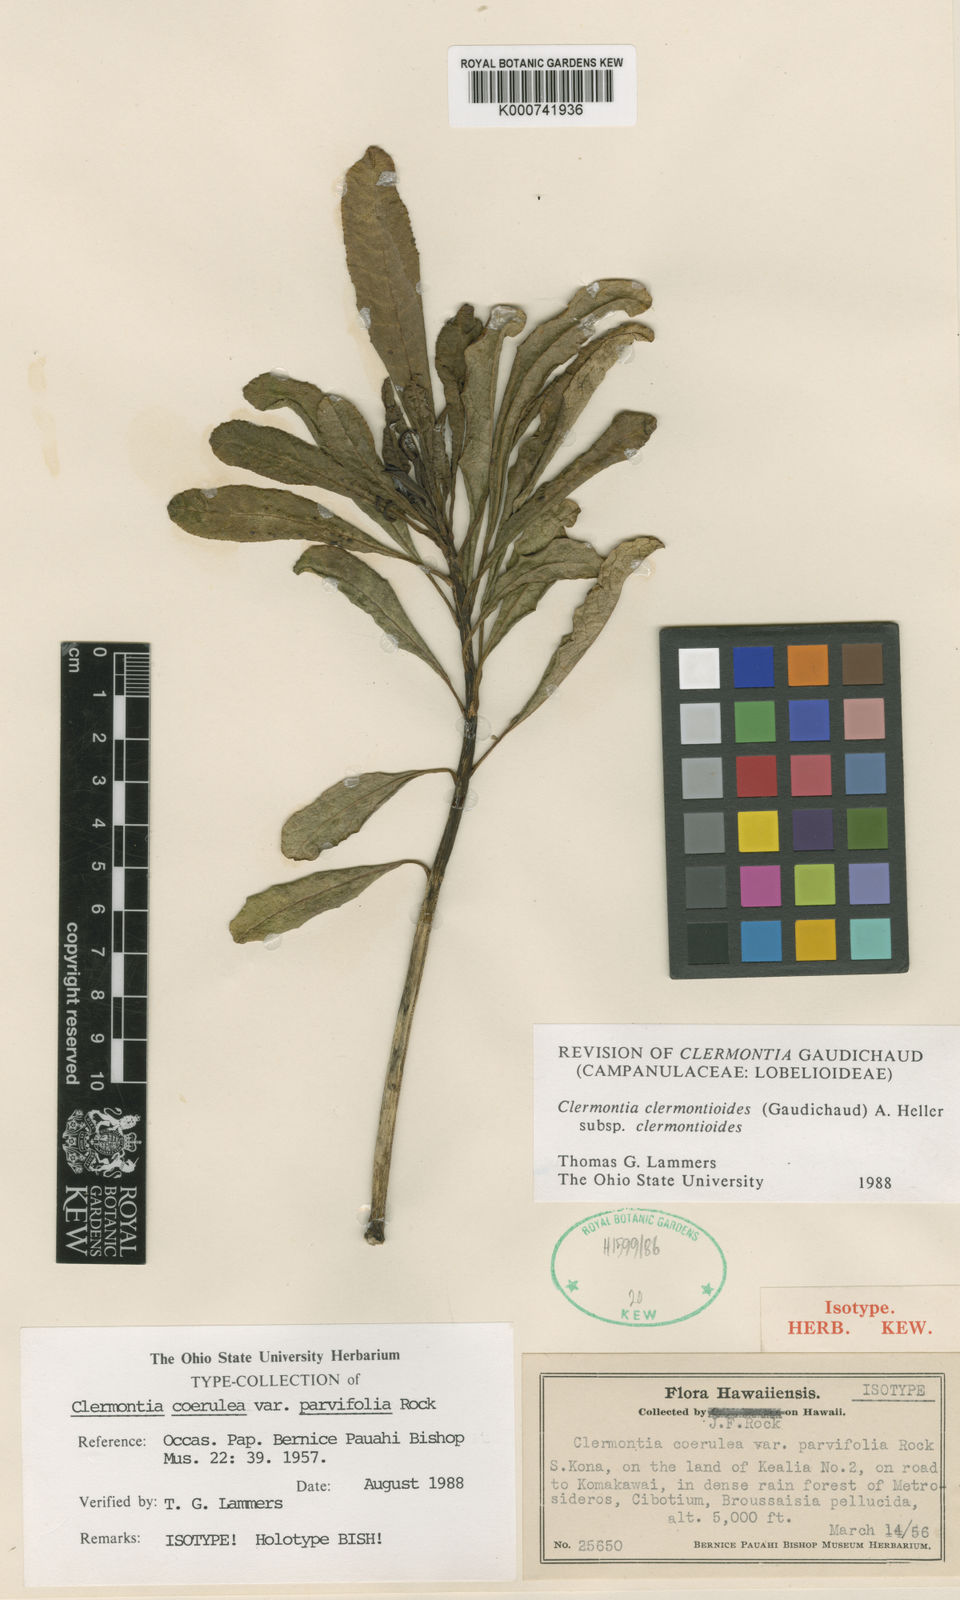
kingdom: Plantae
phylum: Tracheophyta
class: Magnoliopsida
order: Asterales
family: Campanulaceae
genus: Clermontia
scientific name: Clermontia clermontioides
